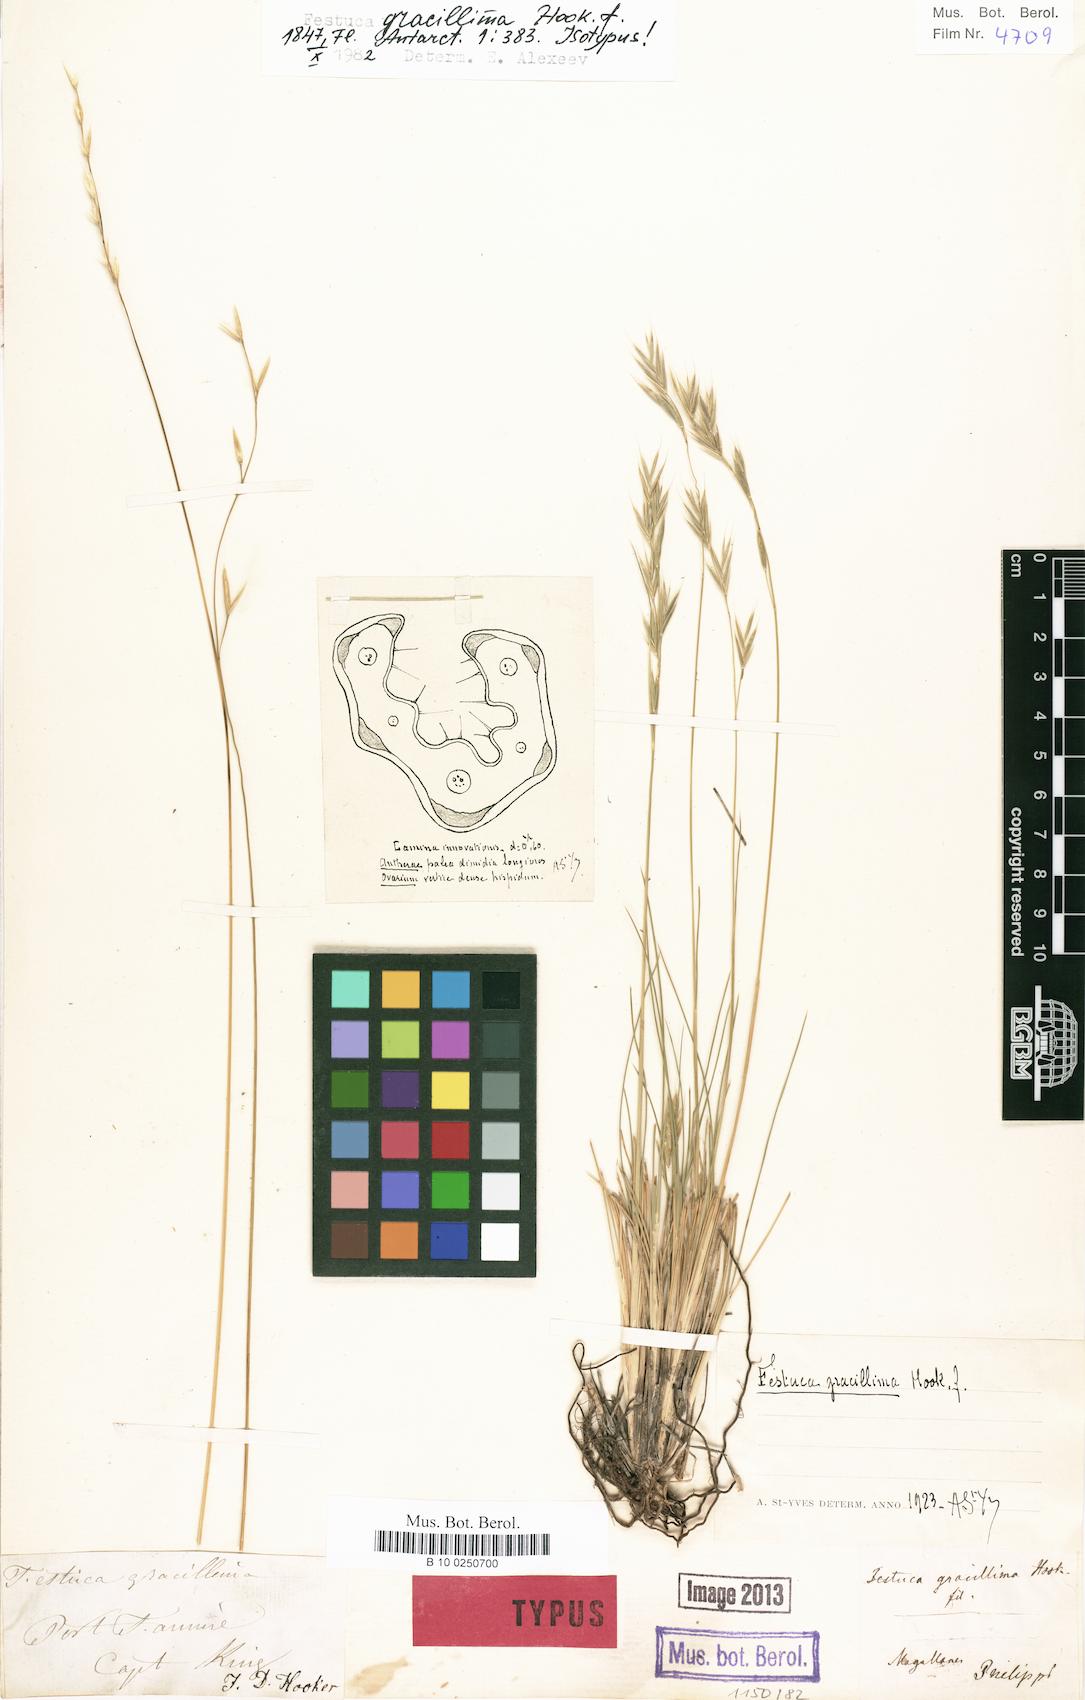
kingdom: Plantae
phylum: Tracheophyta
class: Liliopsida
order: Poales
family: Poaceae
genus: Festuca
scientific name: Festuca gracillima
